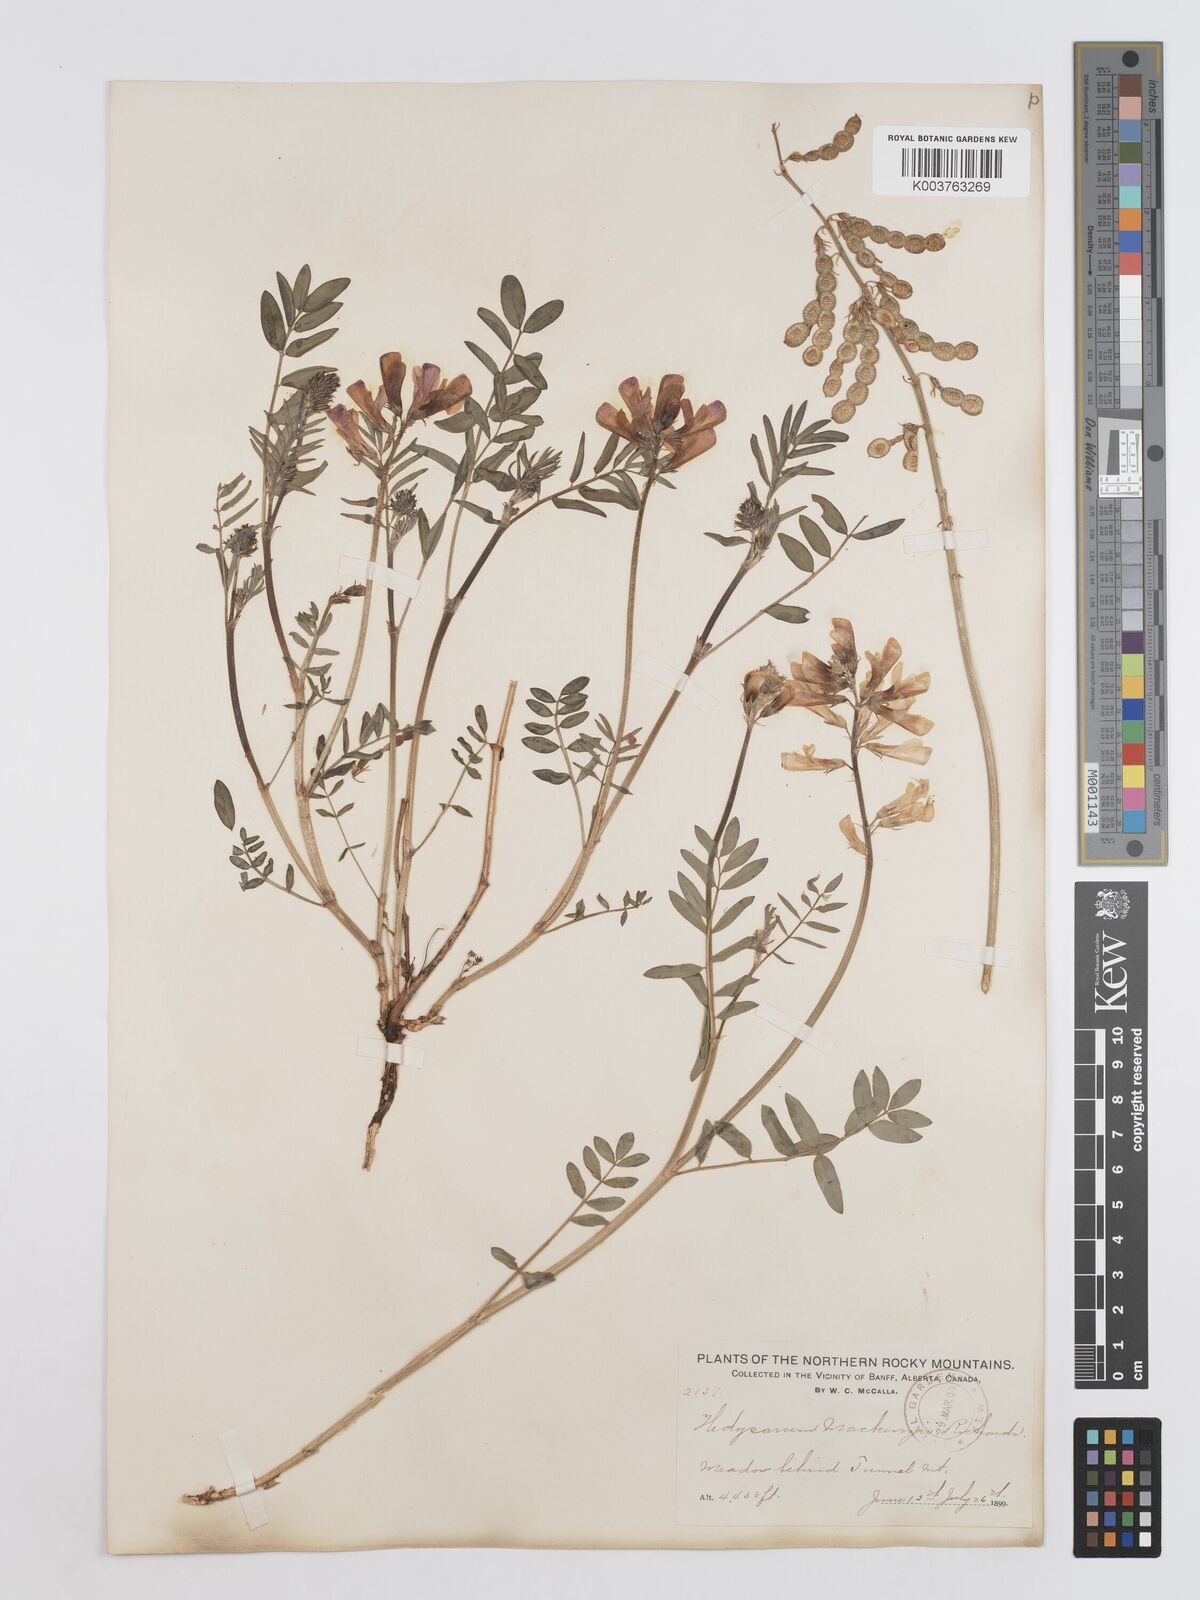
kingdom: Plantae
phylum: Tracheophyta
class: Magnoliopsida
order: Fabales
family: Fabaceae
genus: Hedysarum
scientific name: Hedysarum boreale
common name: Northern sweet-vetch
